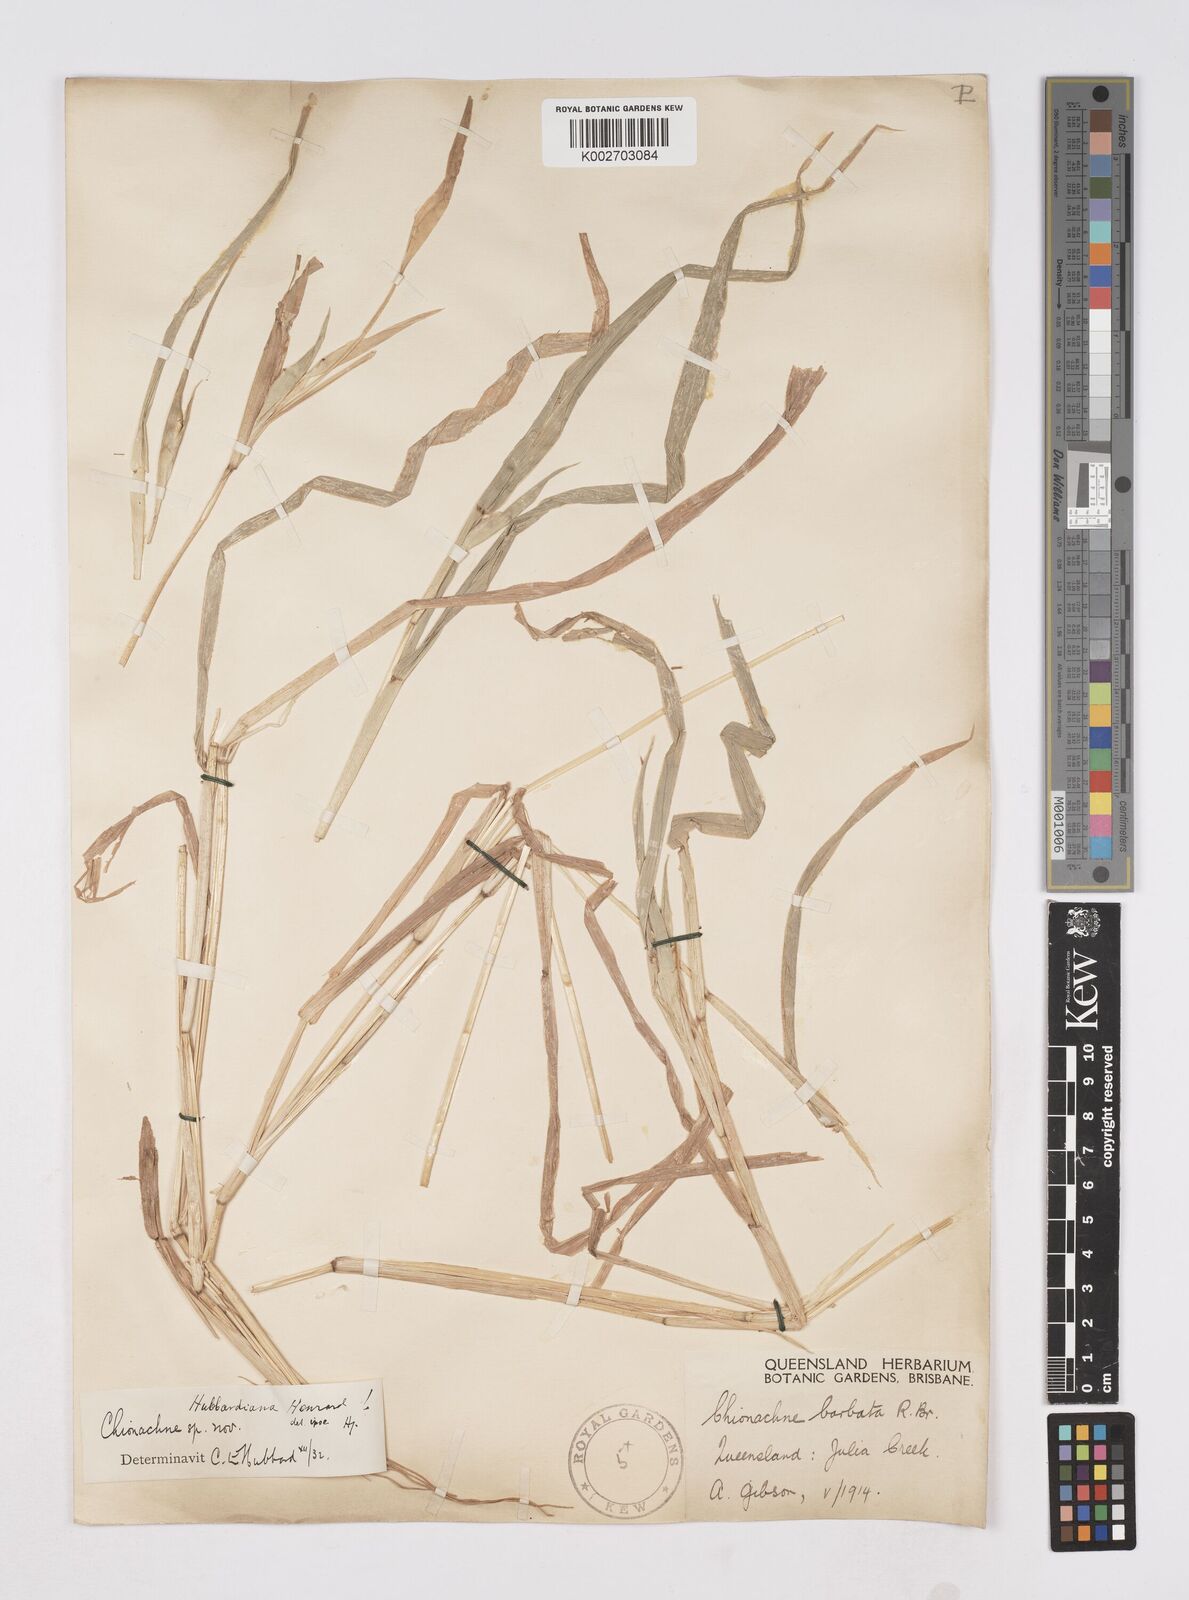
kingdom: Plantae
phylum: Tracheophyta
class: Liliopsida
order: Poales
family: Poaceae
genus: Polytoca
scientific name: Polytoca hubbardiana
